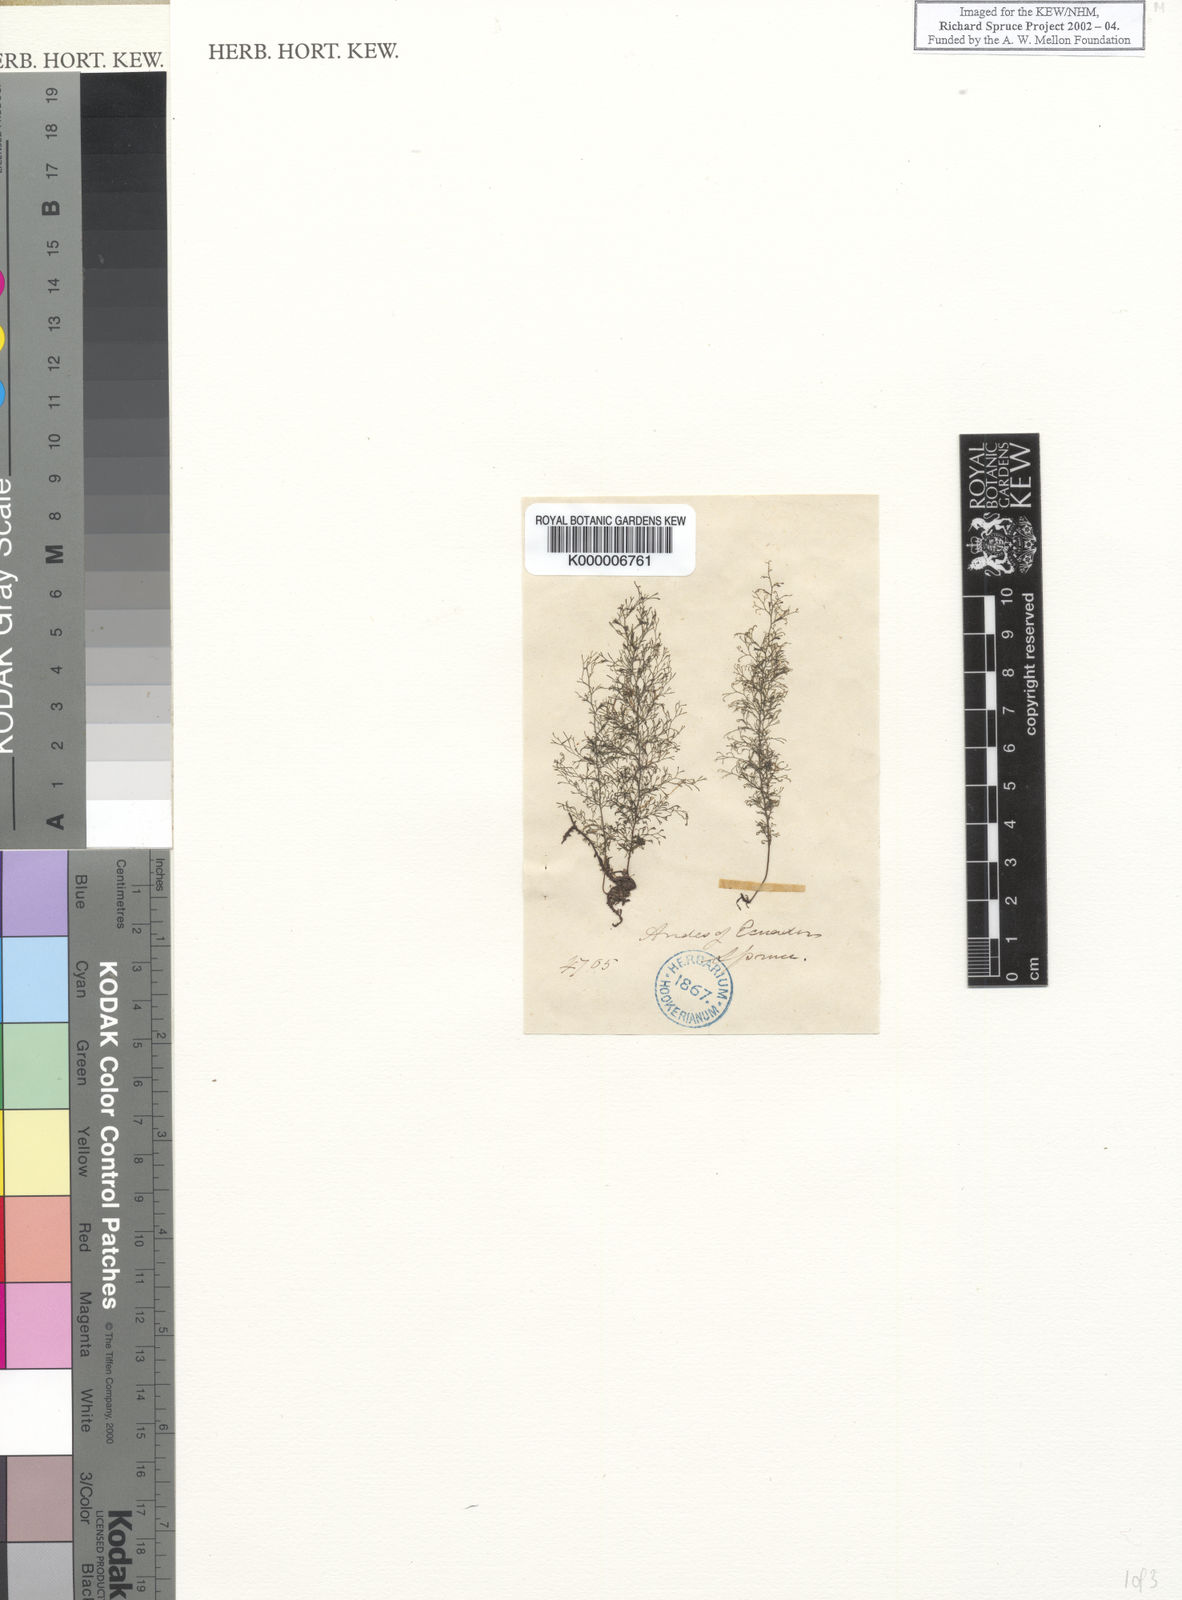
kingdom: Plantae
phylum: Tracheophyta
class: Polypodiopsida
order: Hymenophyllales
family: Hymenophyllaceae
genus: Trichomanes
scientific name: Trichomanes
